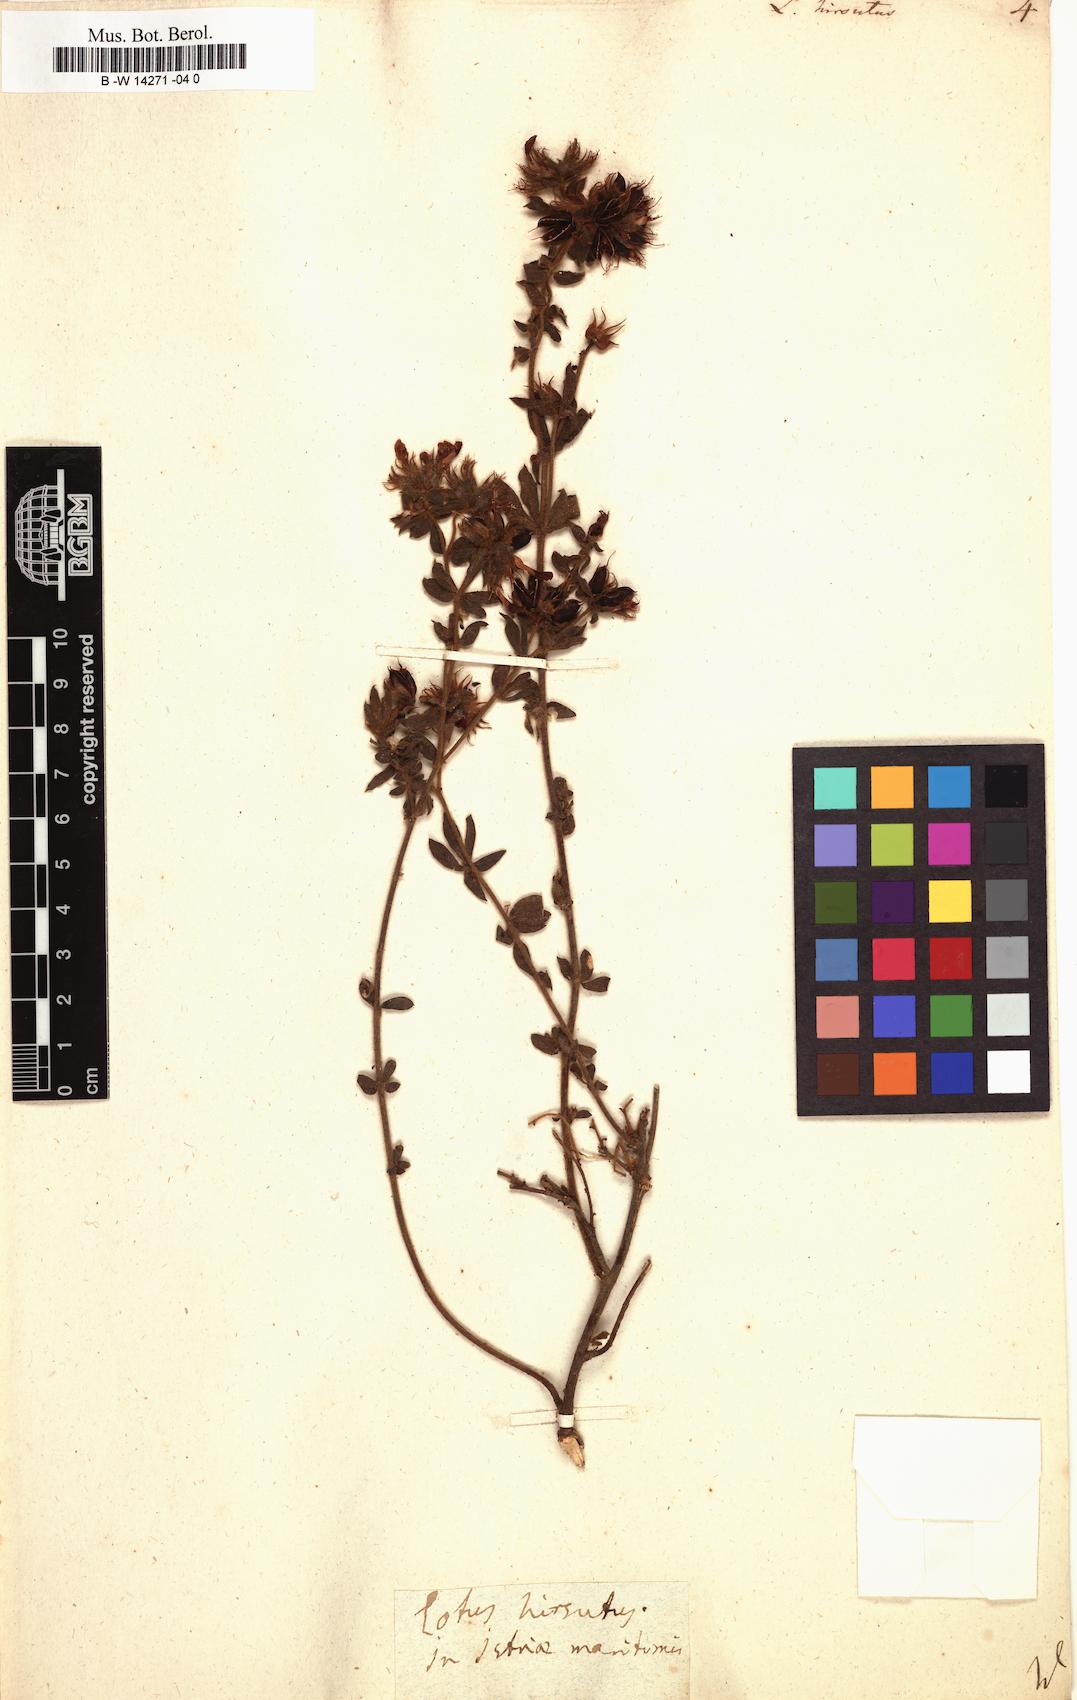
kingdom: Plantae
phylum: Tracheophyta
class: Magnoliopsida
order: Fabales
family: Fabaceae
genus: Lotus
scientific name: Lotus hirsutus
